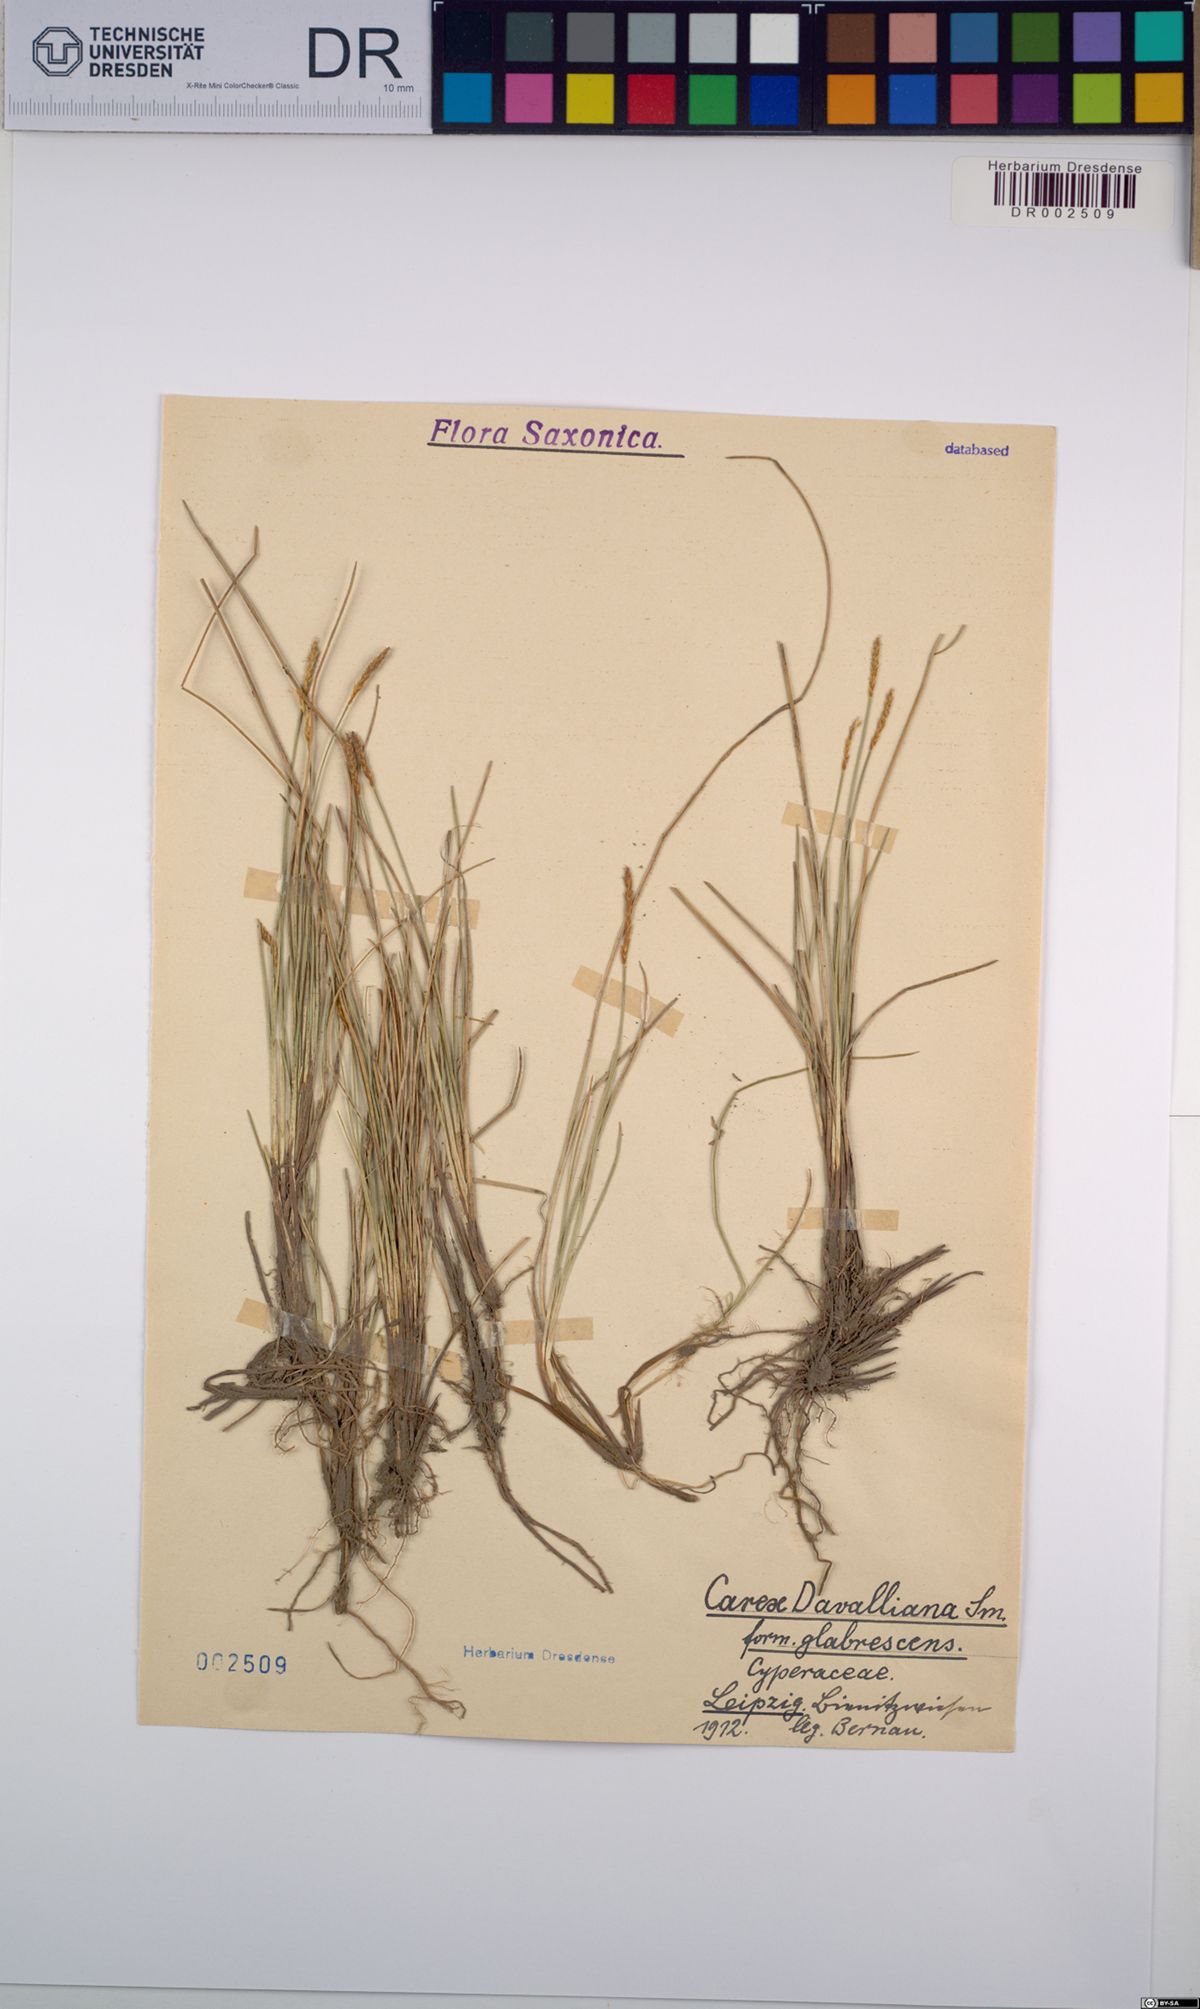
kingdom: Plantae
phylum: Tracheophyta
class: Liliopsida
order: Poales
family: Cyperaceae
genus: Carex
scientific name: Carex davalliana
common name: Davall's sedge
